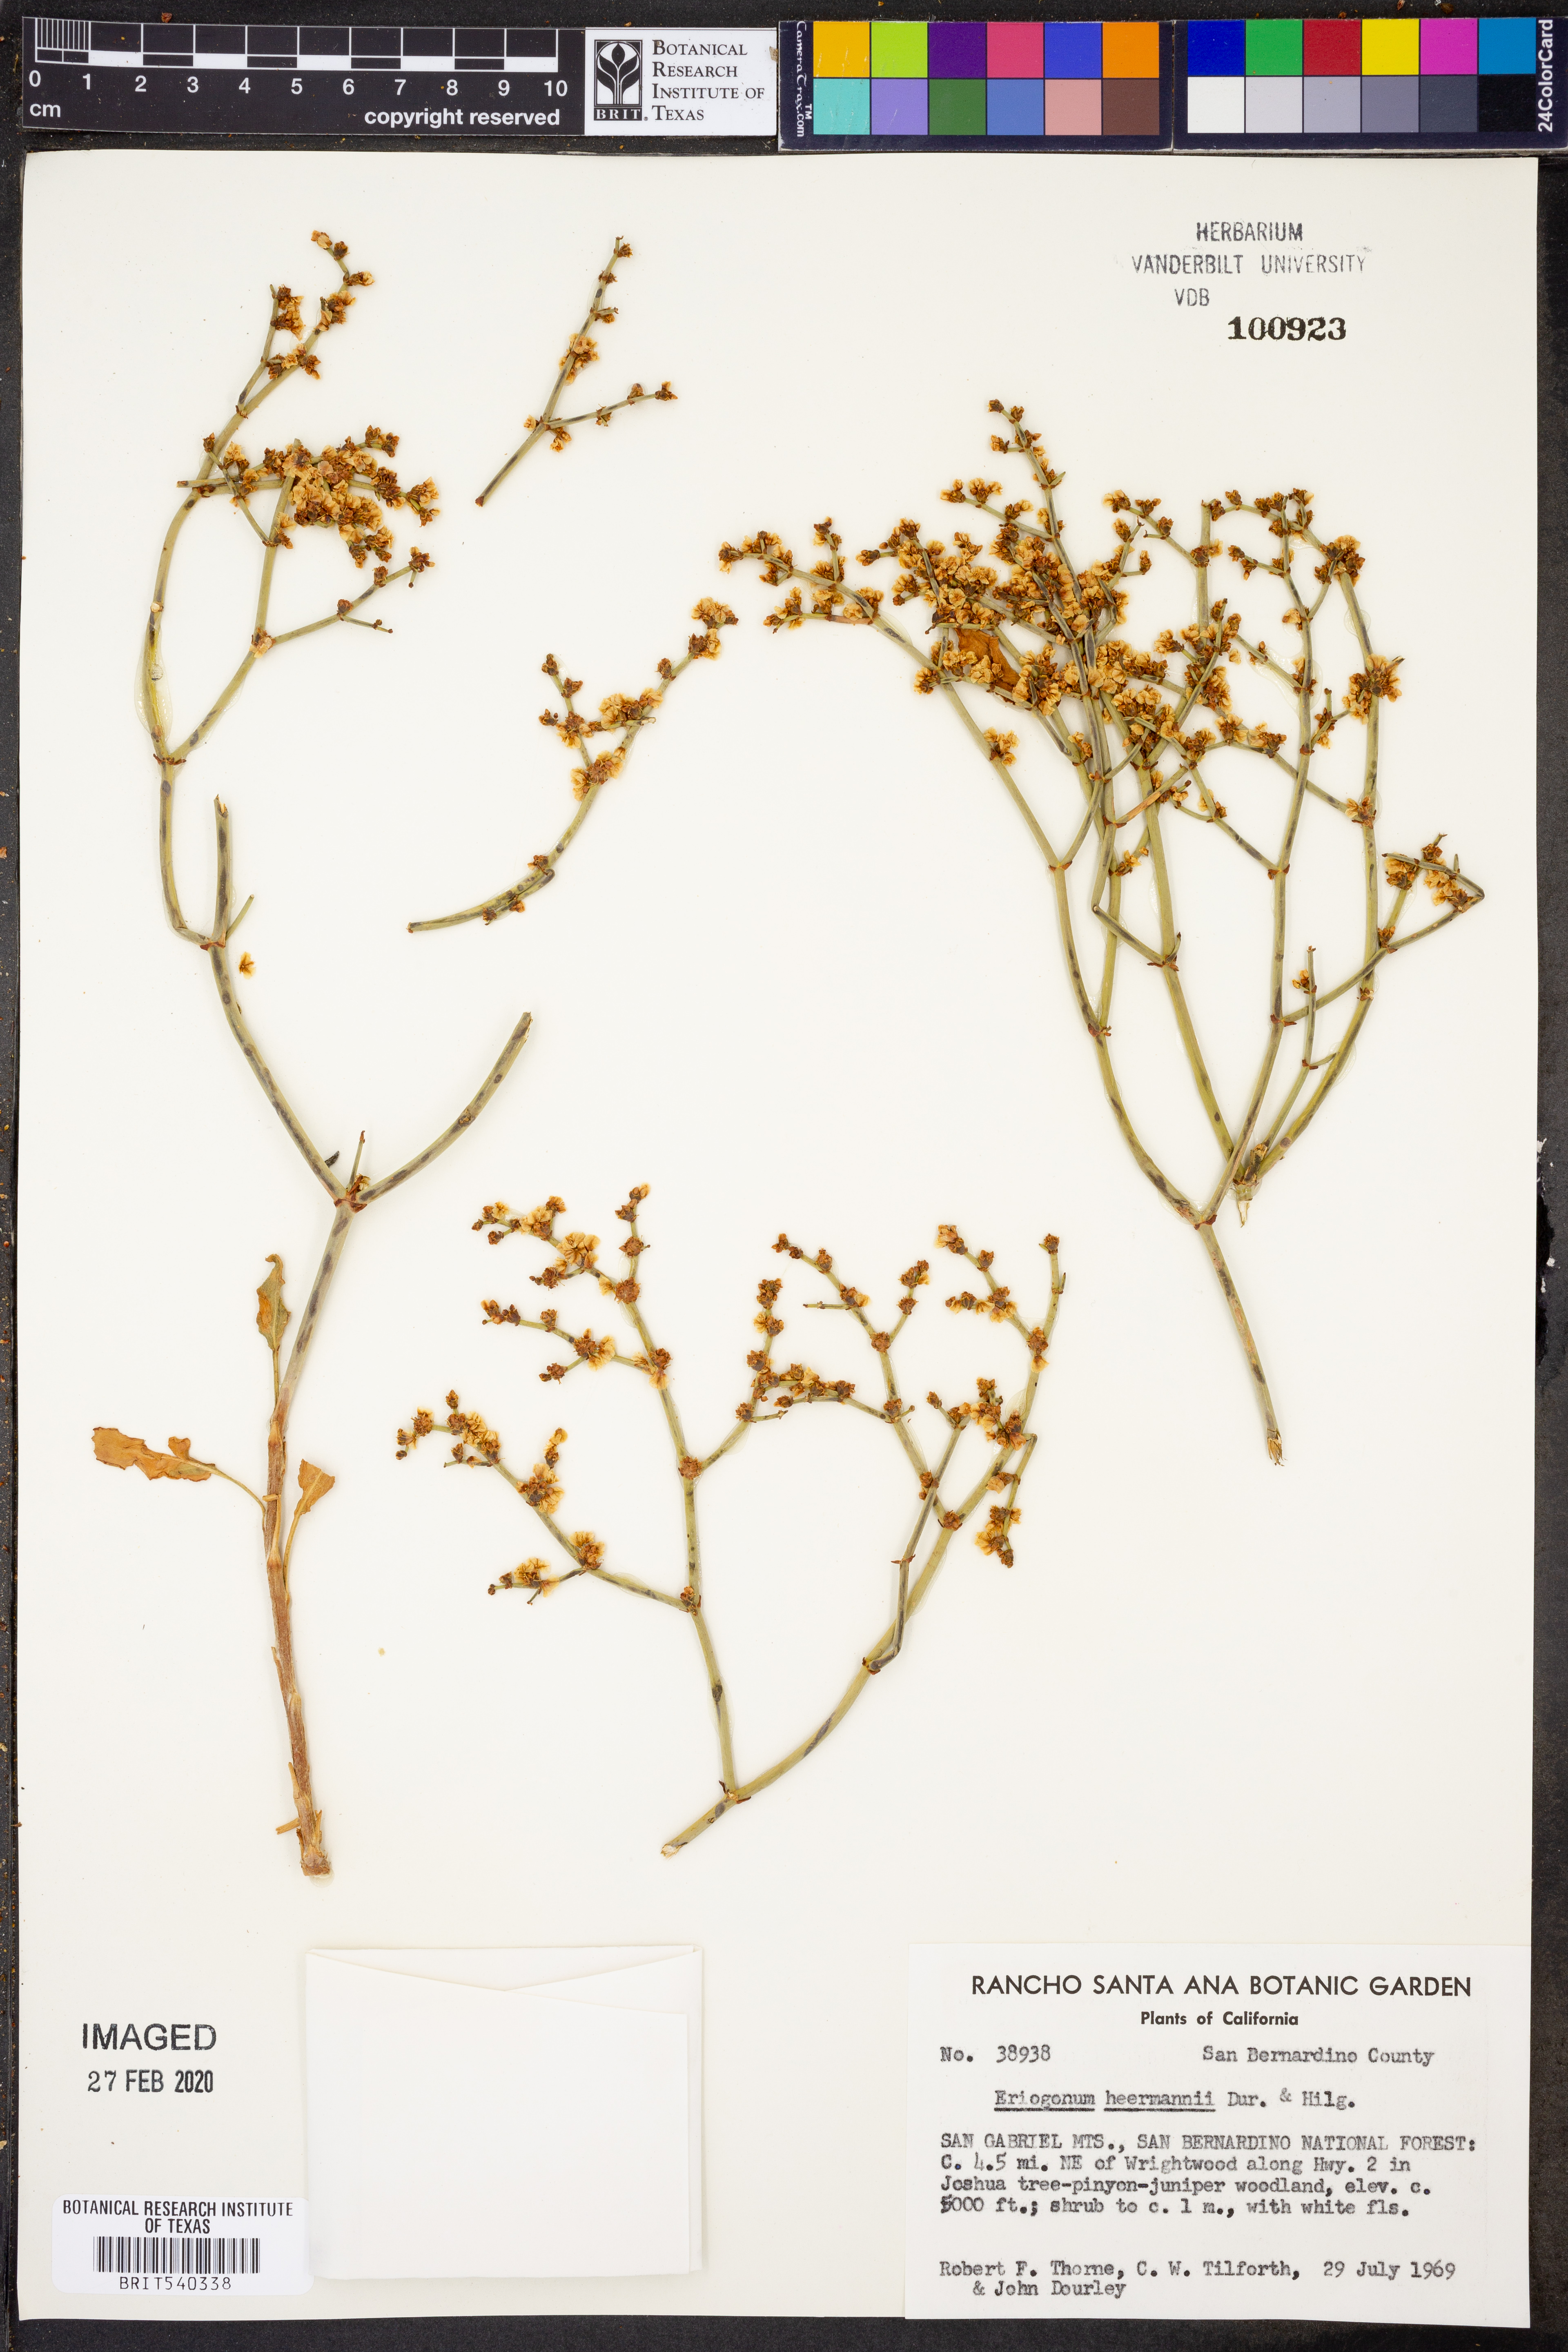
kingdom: Plantae
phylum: Tracheophyta
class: Magnoliopsida
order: Caryophyllales
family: Polygonaceae
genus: Eriogonum
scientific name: Eriogonum heermannii
